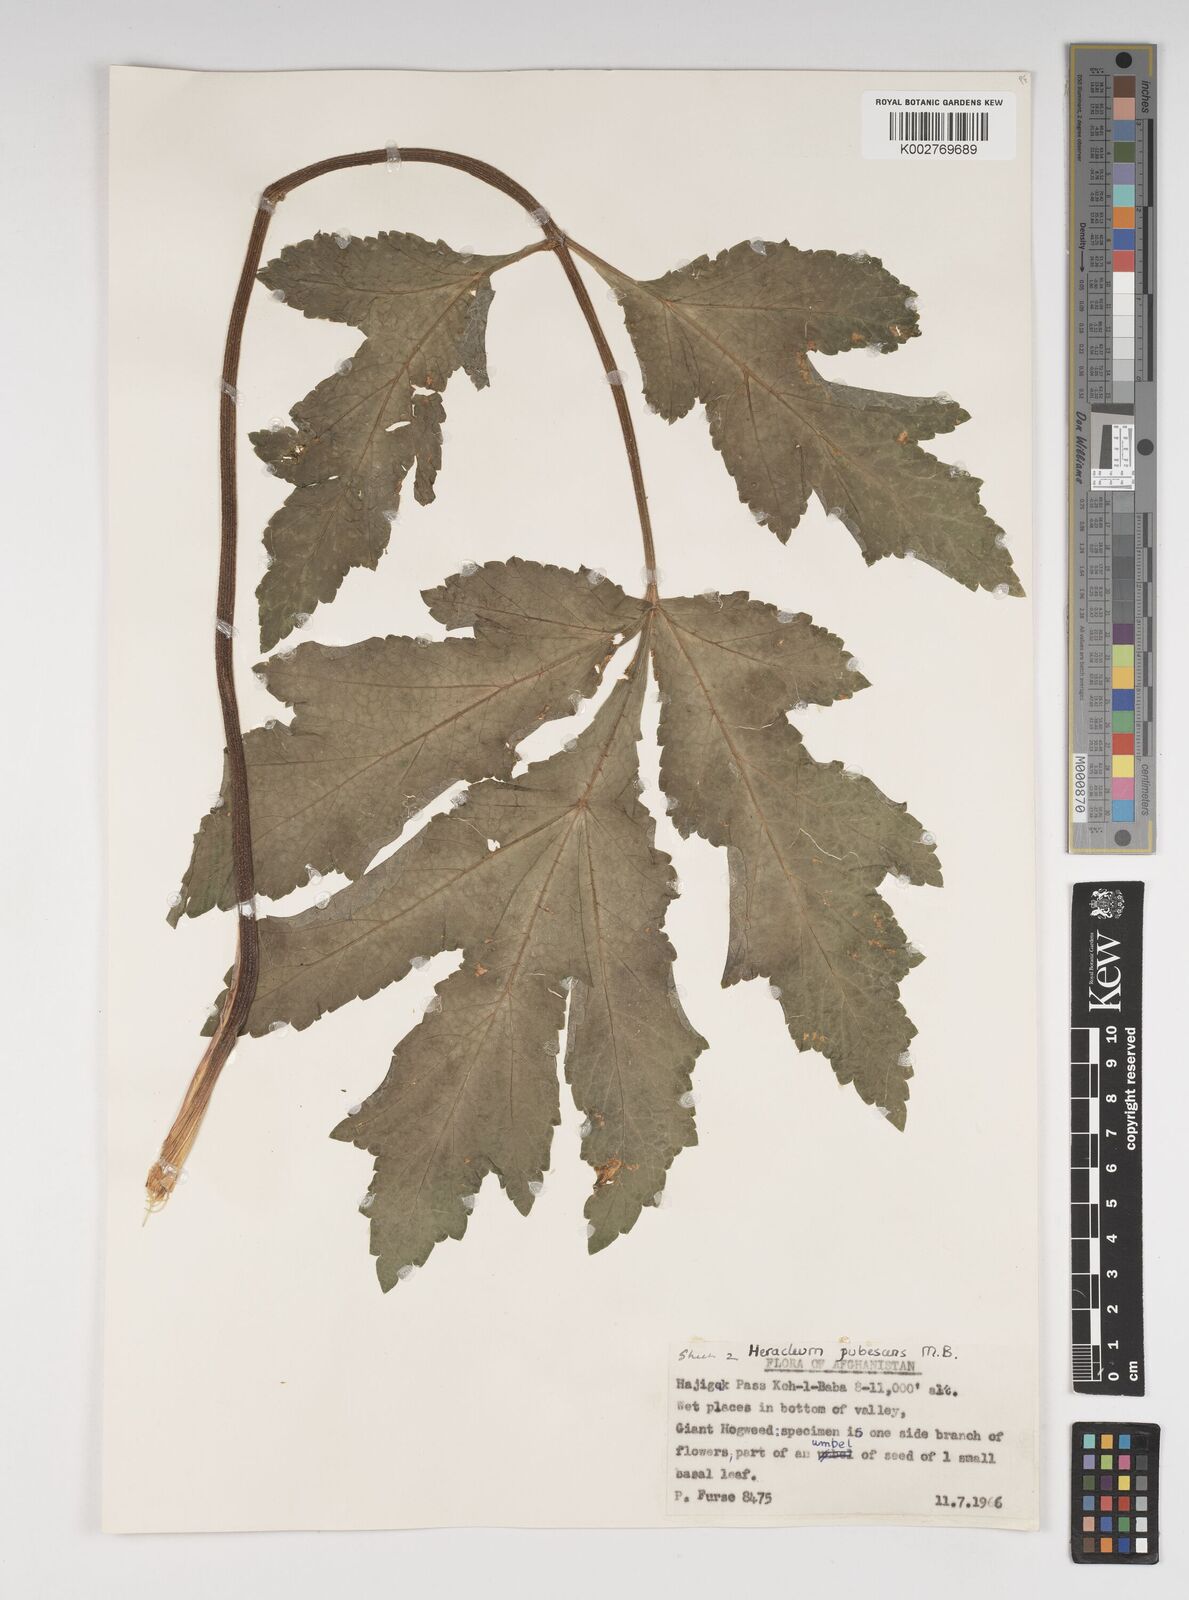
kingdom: Plantae
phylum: Tracheophyta
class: Magnoliopsida
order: Apiales
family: Apiaceae
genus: Heracleum
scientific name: Heracleum persicum
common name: Persian hogweed
